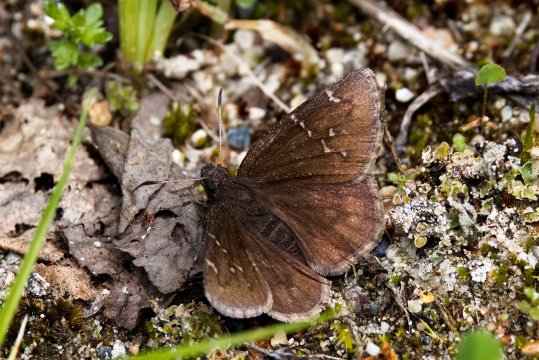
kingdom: Animalia
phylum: Arthropoda
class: Insecta
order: Lepidoptera
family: Hesperiidae
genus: Autochton
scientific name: Autochton
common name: Northern Cloudywing
